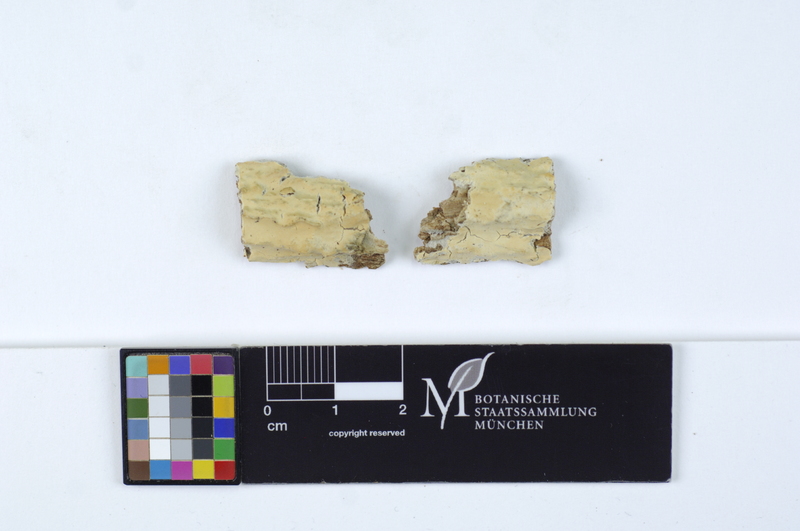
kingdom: Fungi
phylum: Basidiomycota
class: Agaricomycetes
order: Corticiales
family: Corticiaceae
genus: Erythricium
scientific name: Erythricium laetum
